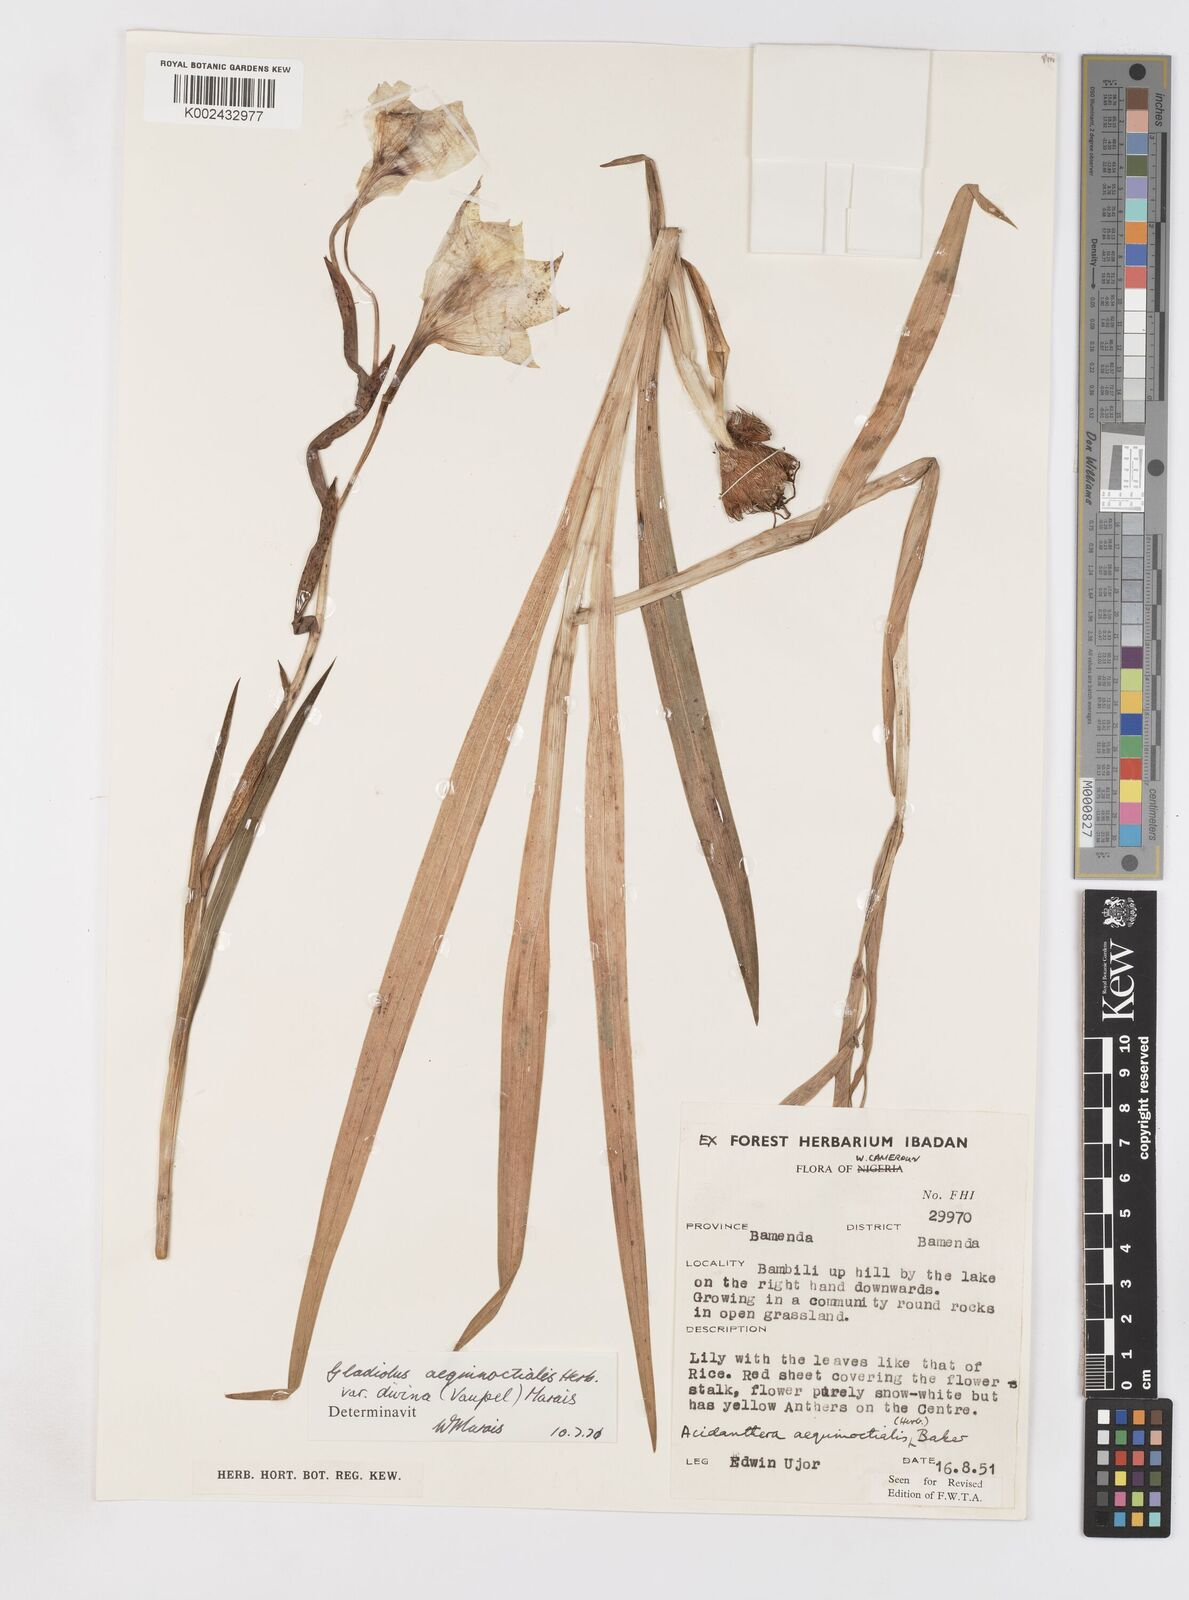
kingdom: Plantae
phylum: Tracheophyta
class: Liliopsida
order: Asparagales
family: Iridaceae
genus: Gladiolus
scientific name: Gladiolus aequinoctialis
